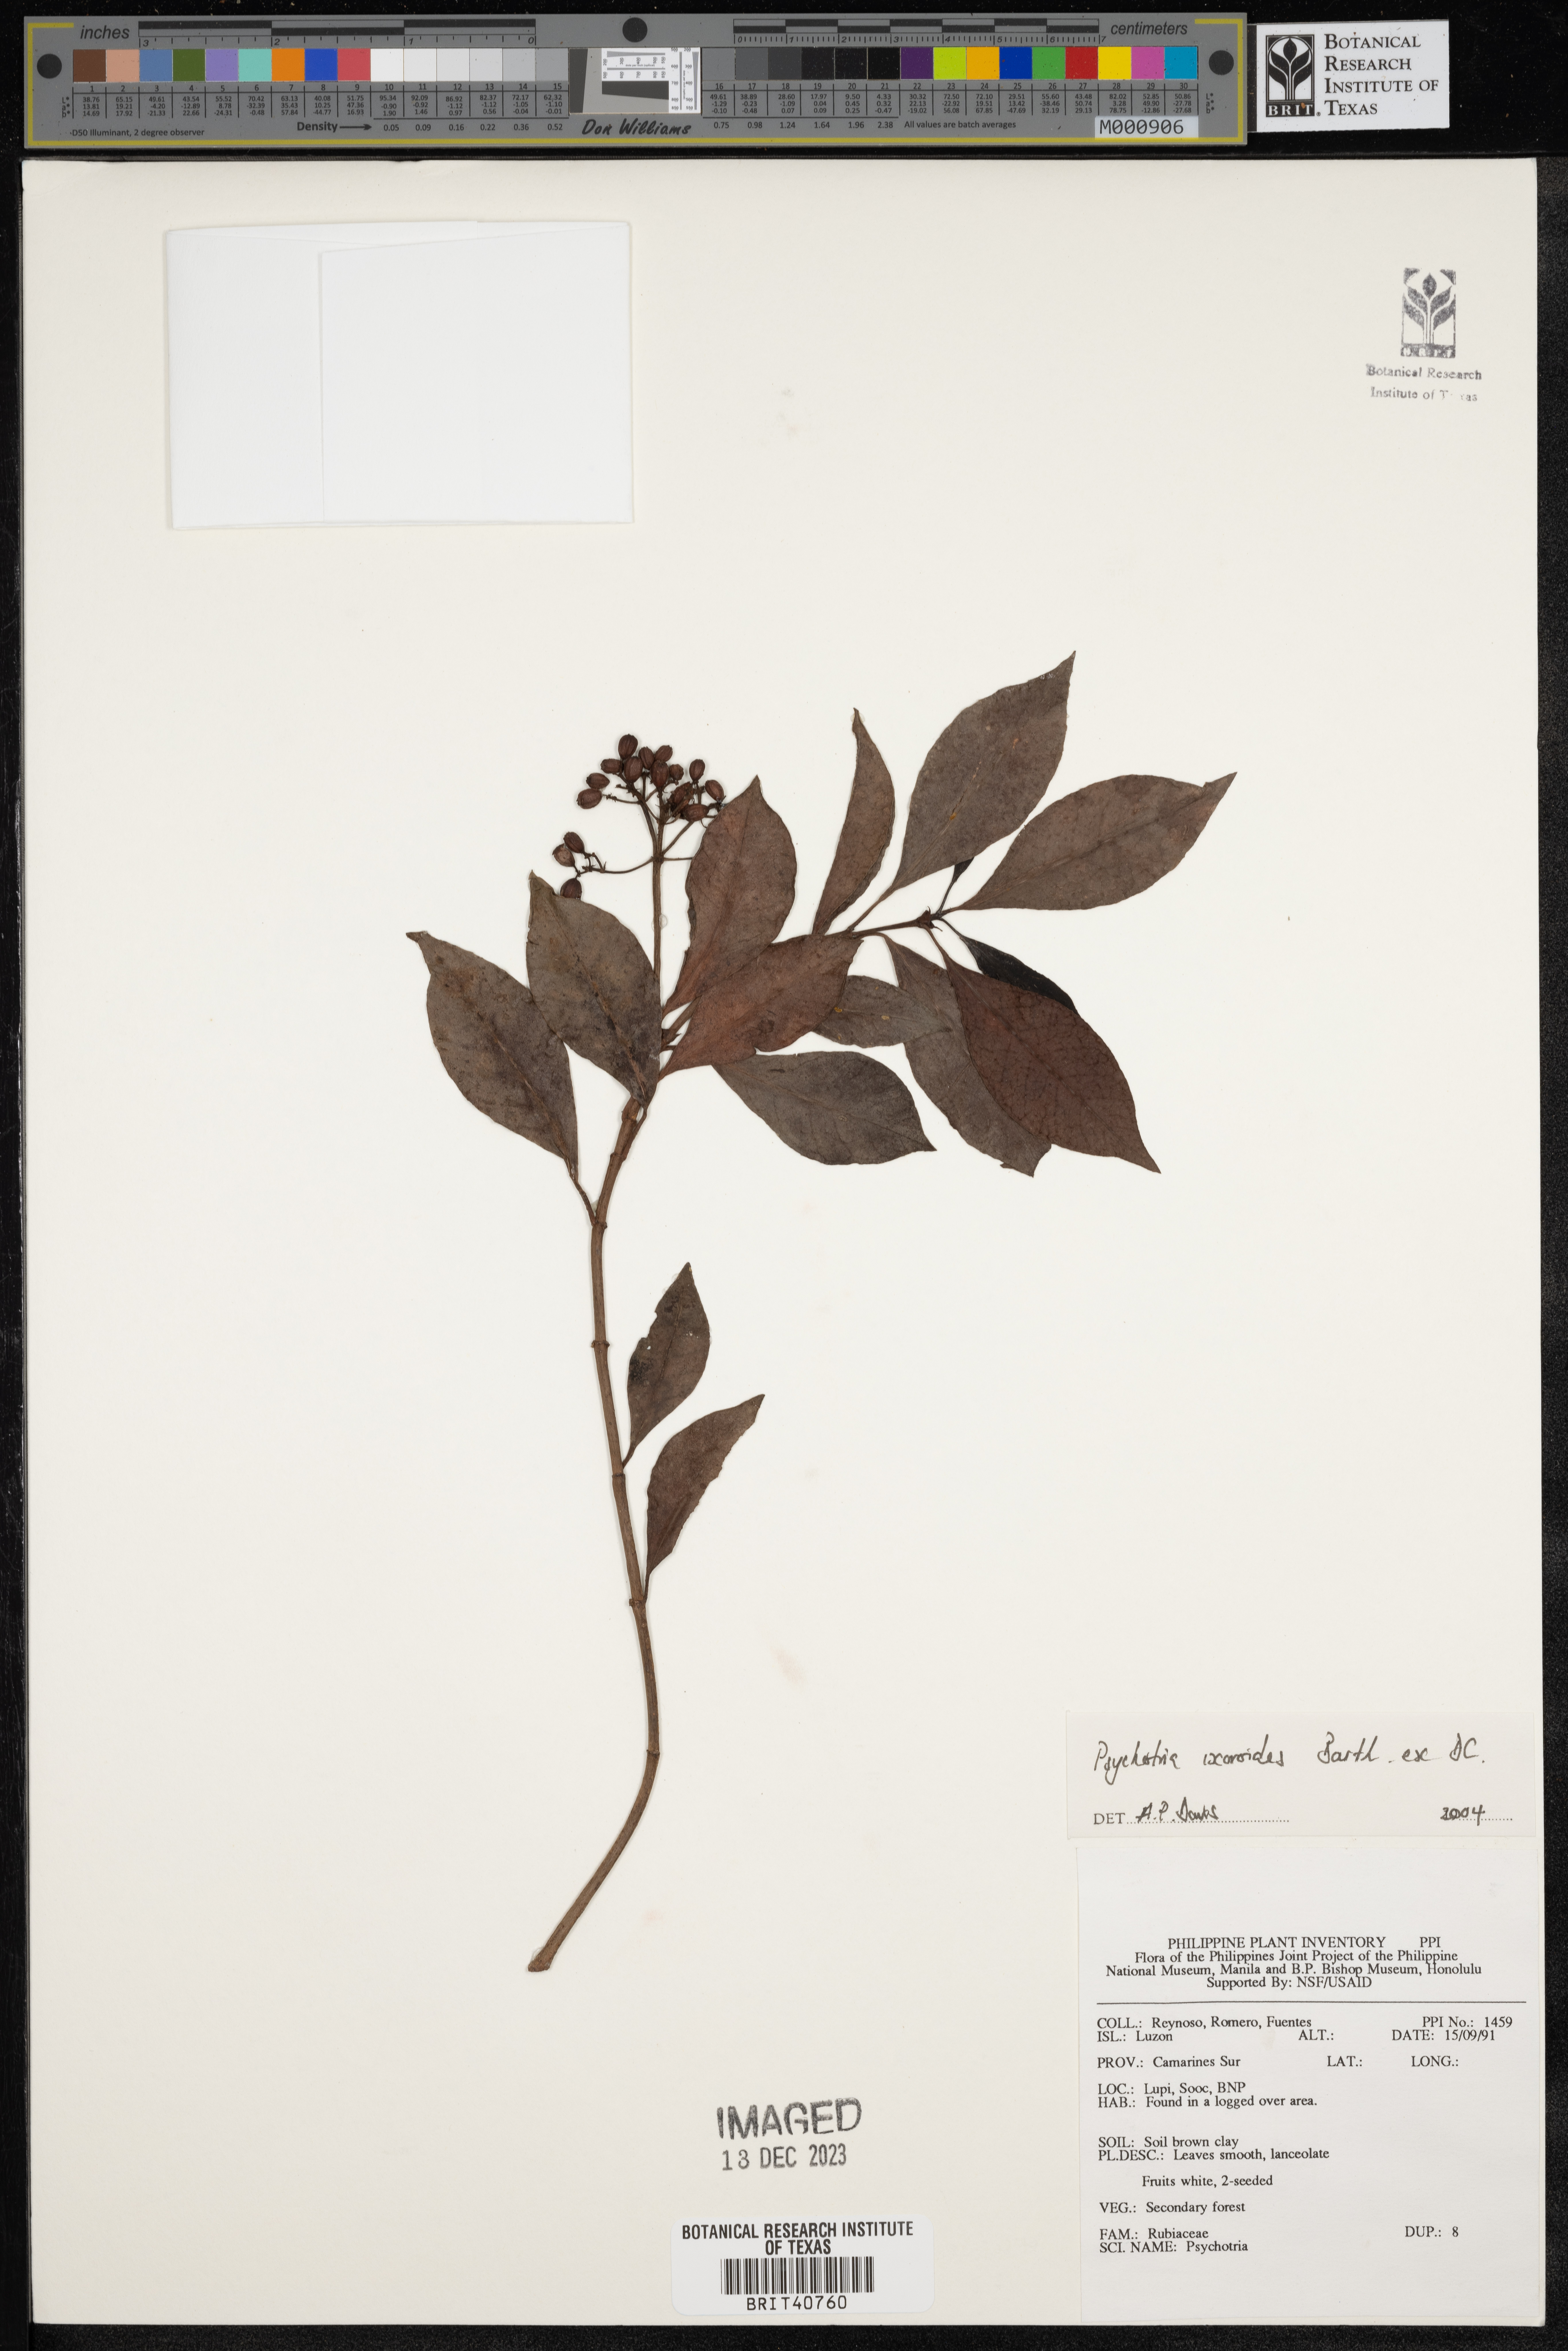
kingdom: Plantae
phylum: Tracheophyta
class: Magnoliopsida
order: Gentianales
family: Rubiaceae
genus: Psychotria
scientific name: Psychotria ixoroides
